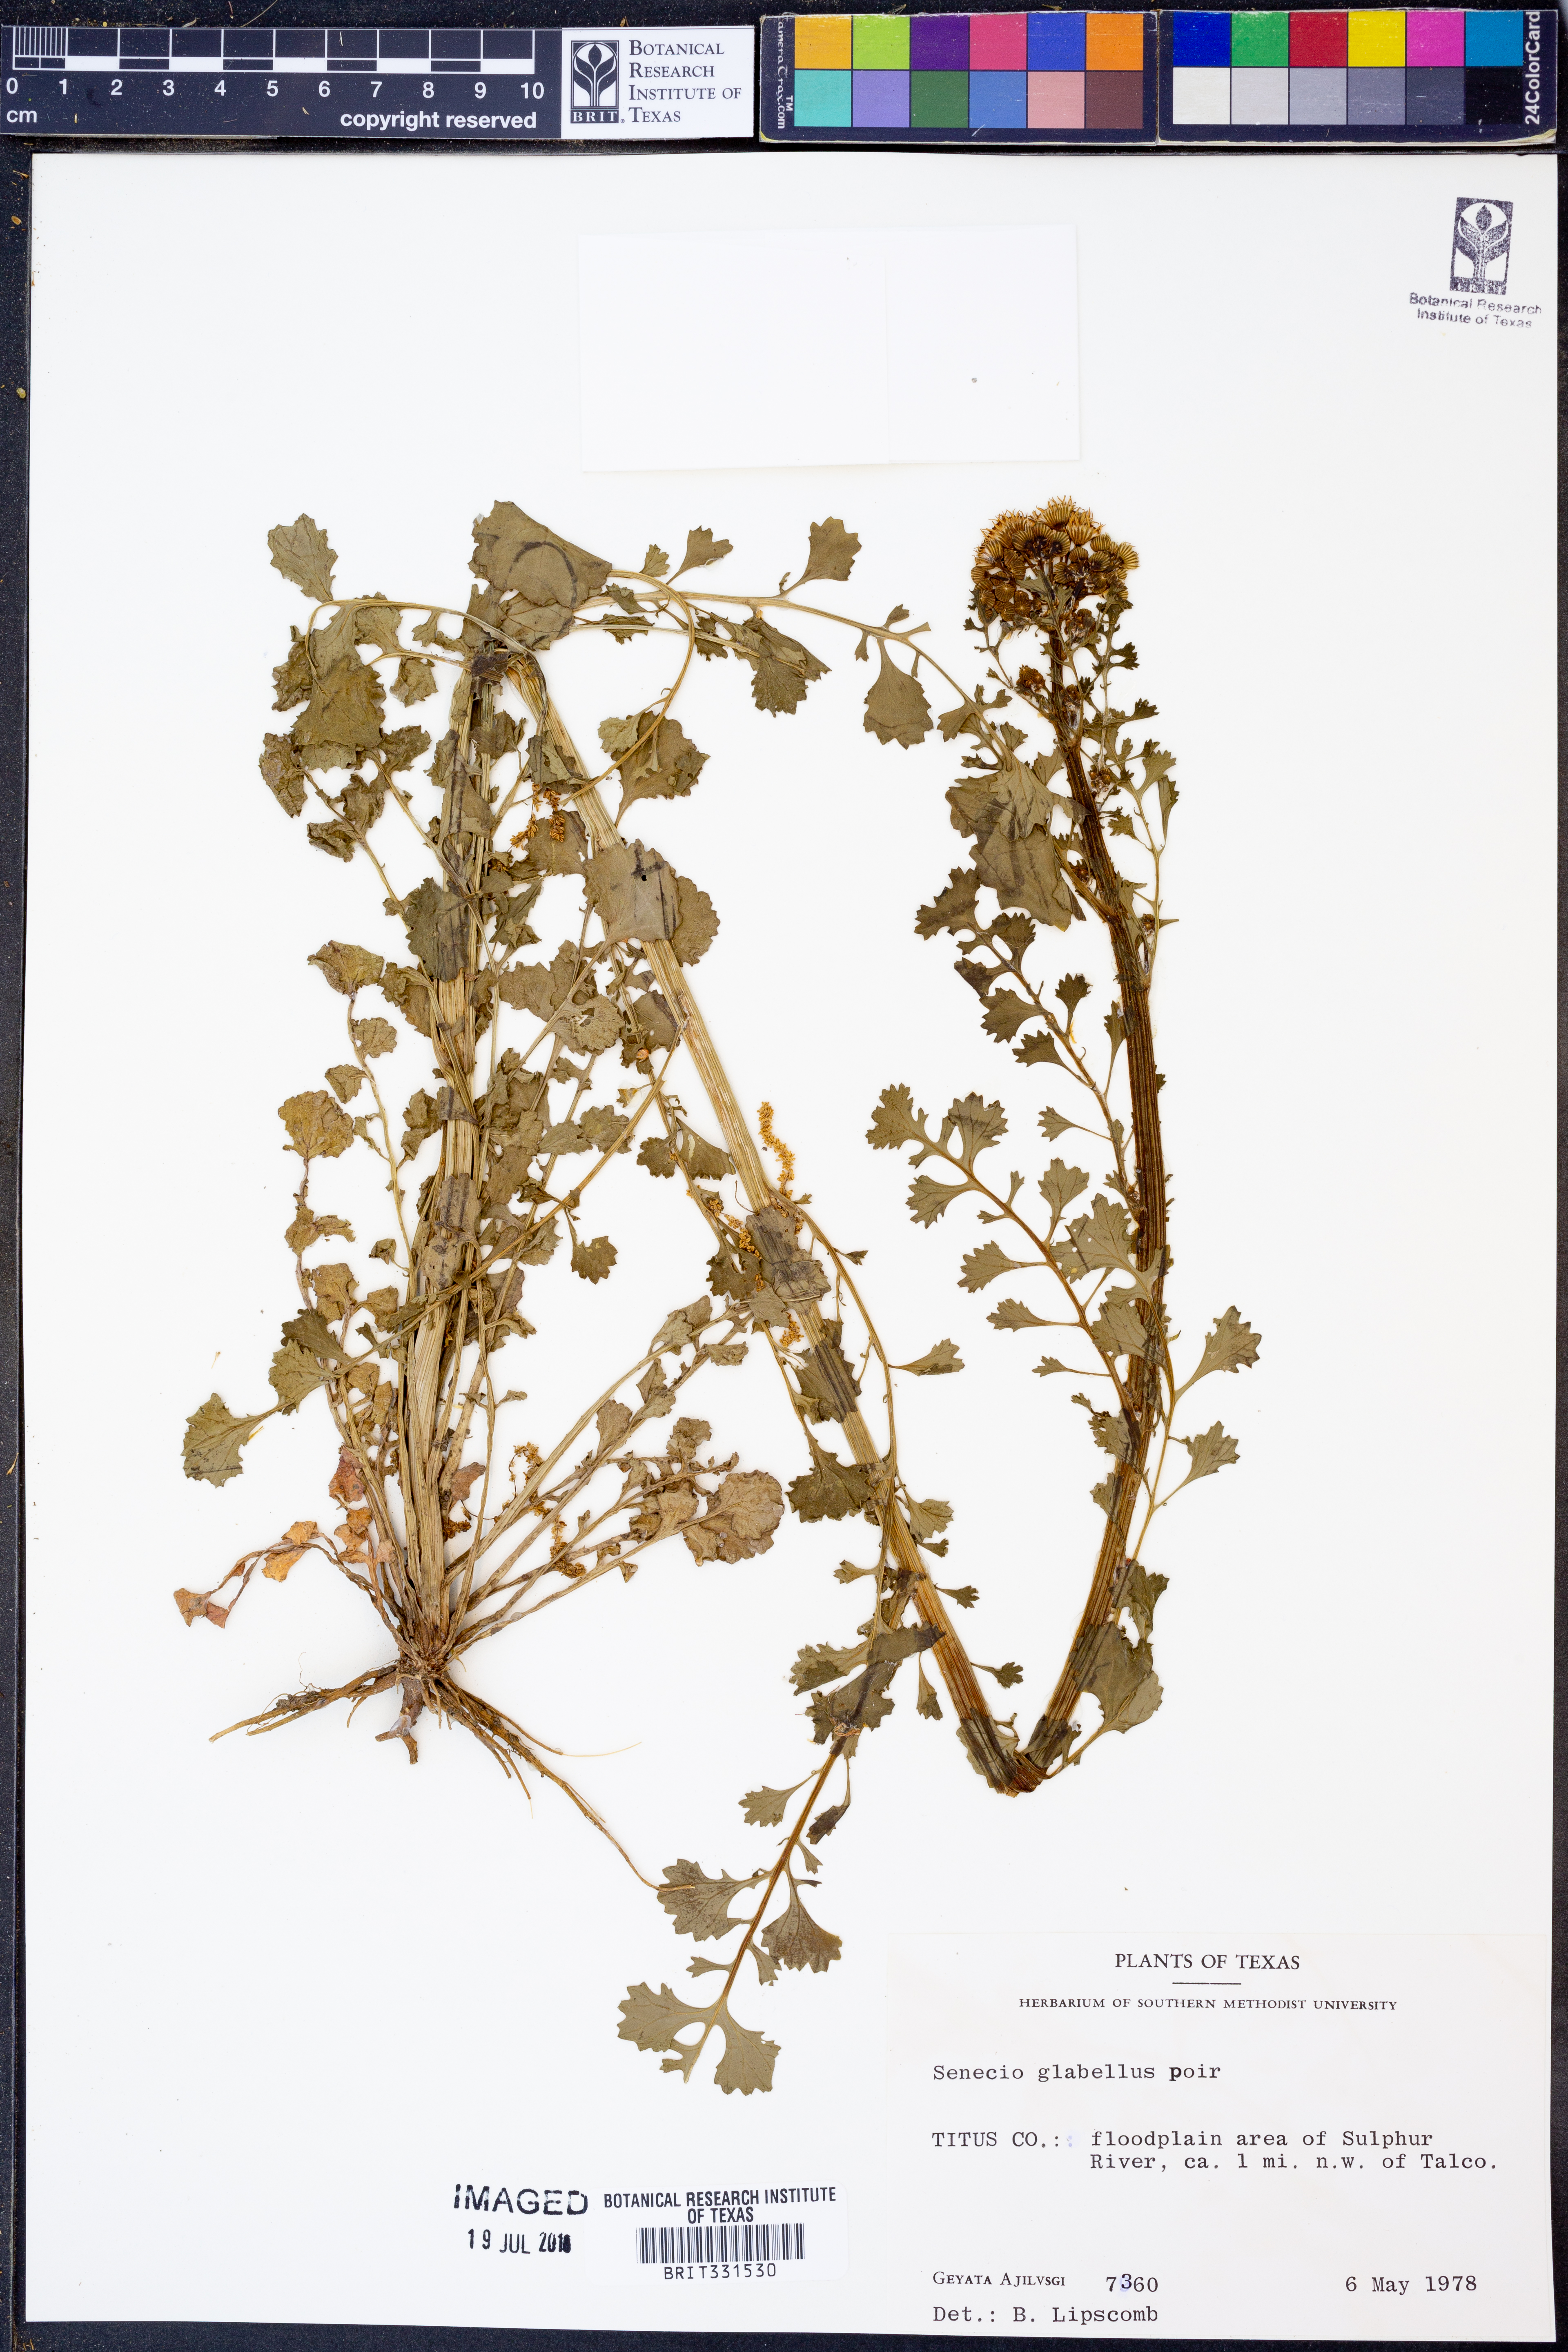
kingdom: Plantae
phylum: Tracheophyta
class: Magnoliopsida
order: Asterales
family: Asteraceae
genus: Tephroseris
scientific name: Tephroseris praticola
